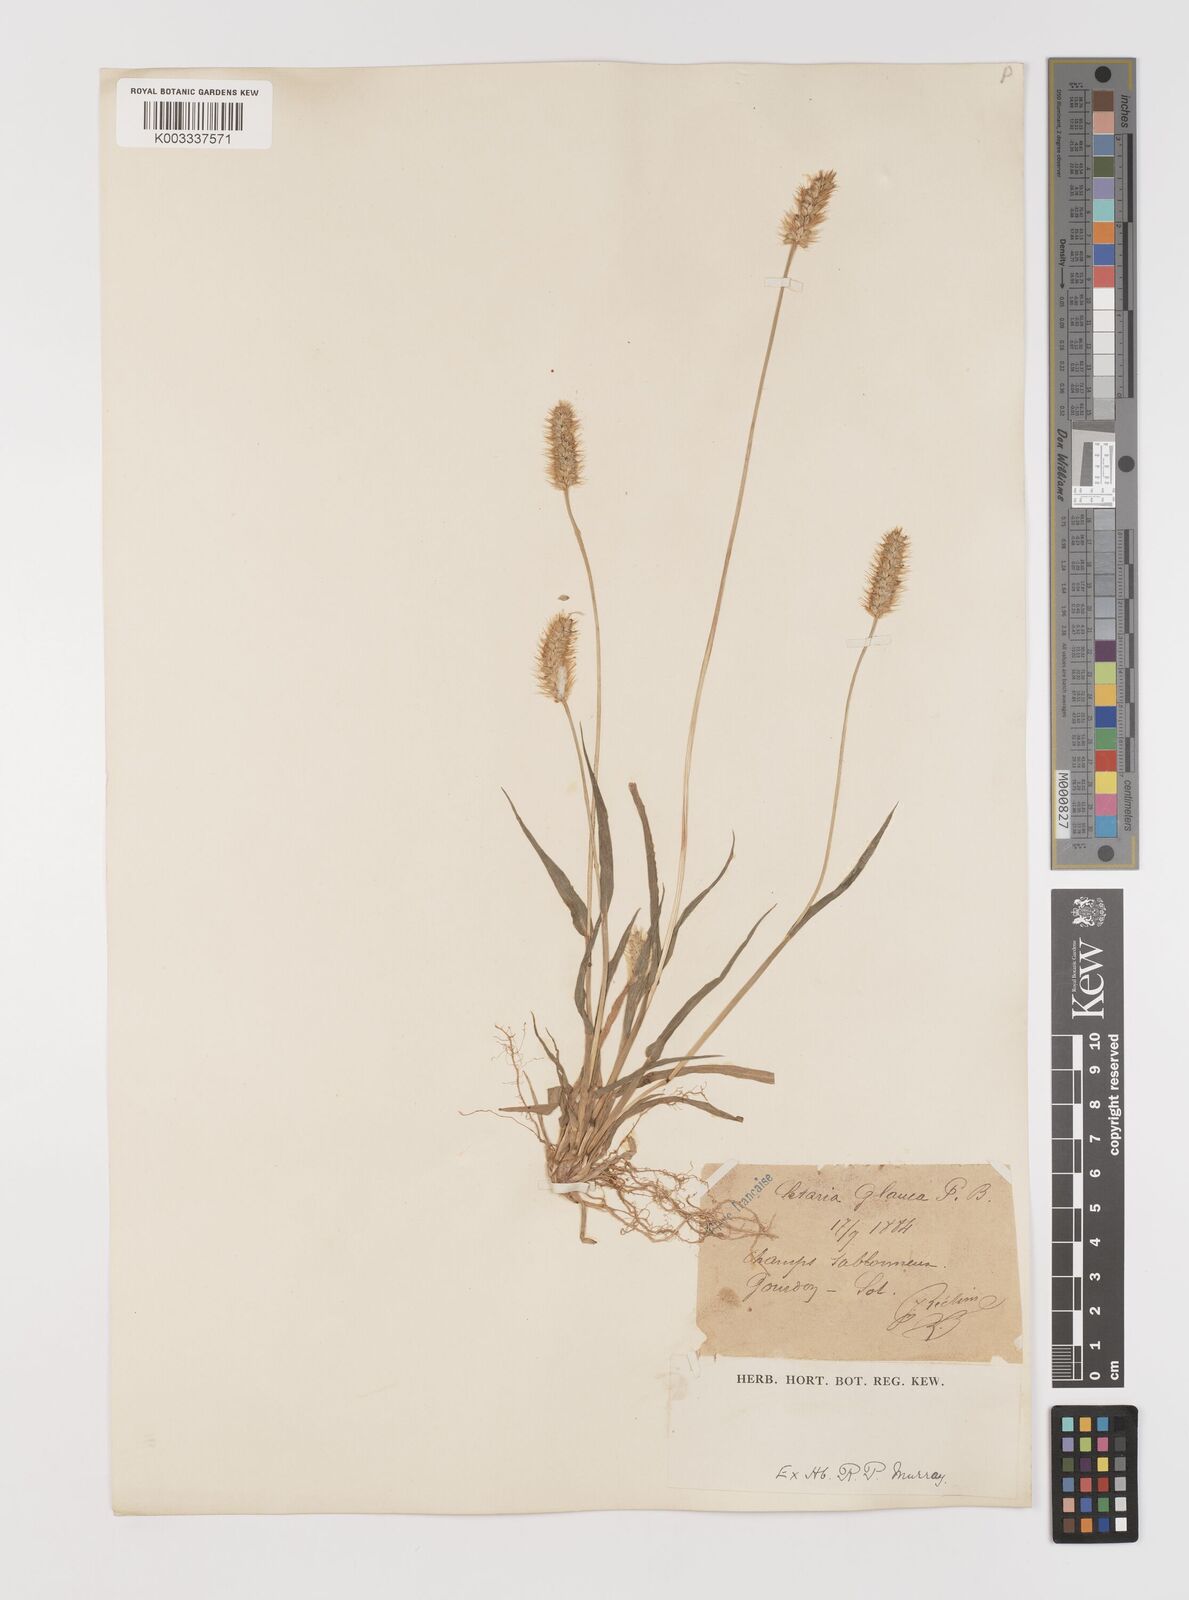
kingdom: Plantae
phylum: Tracheophyta
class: Liliopsida
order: Poales
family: Poaceae
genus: Setaria
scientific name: Setaria pumila
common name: Yellow bristle-grass
